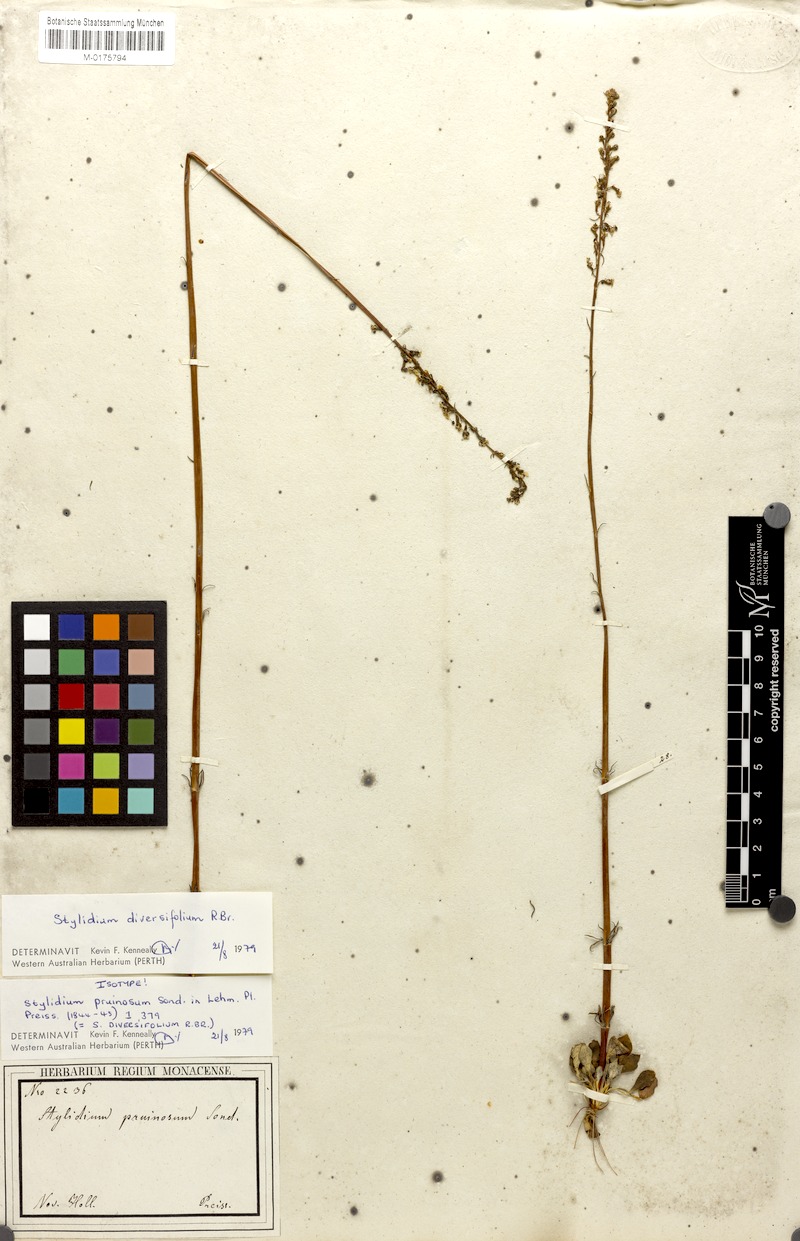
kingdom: Plantae
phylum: Tracheophyta
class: Magnoliopsida
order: Asterales
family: Stylidiaceae
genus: Stylidium
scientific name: Stylidium diversifolium
